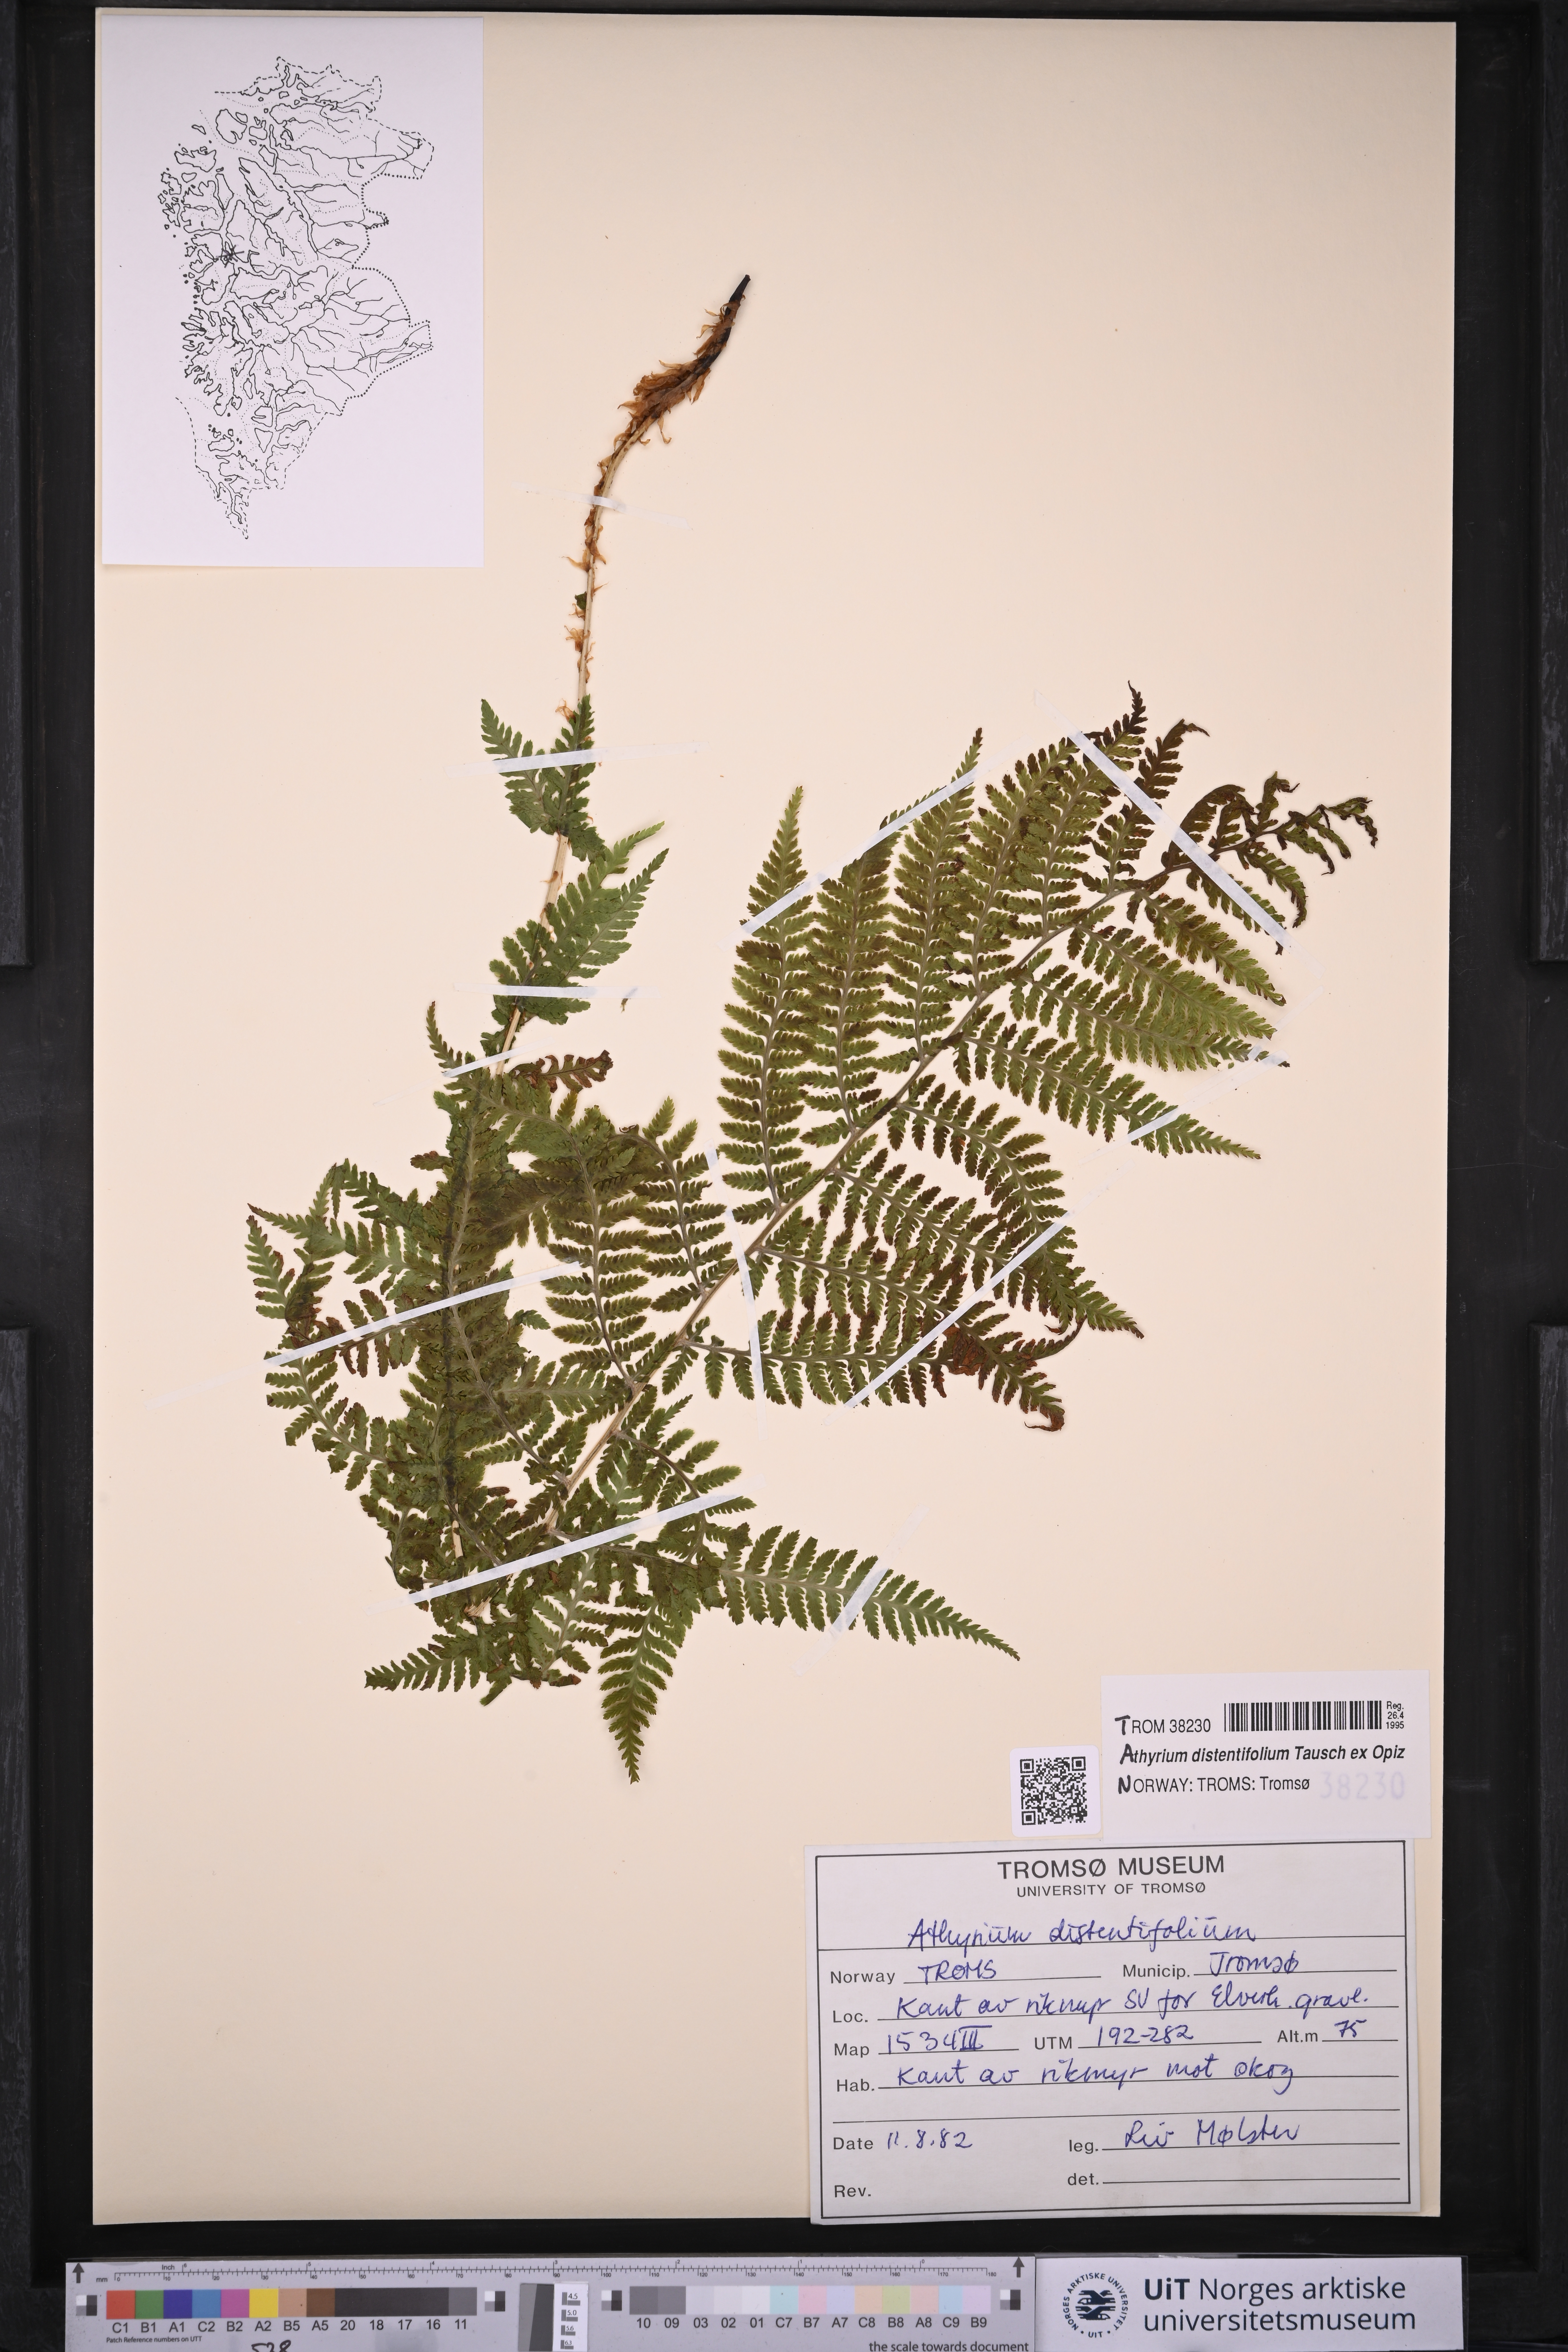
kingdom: Plantae
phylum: Tracheophyta
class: Polypodiopsida
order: Polypodiales
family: Athyriaceae
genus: Pseudathyrium
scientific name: Pseudathyrium alpestre
